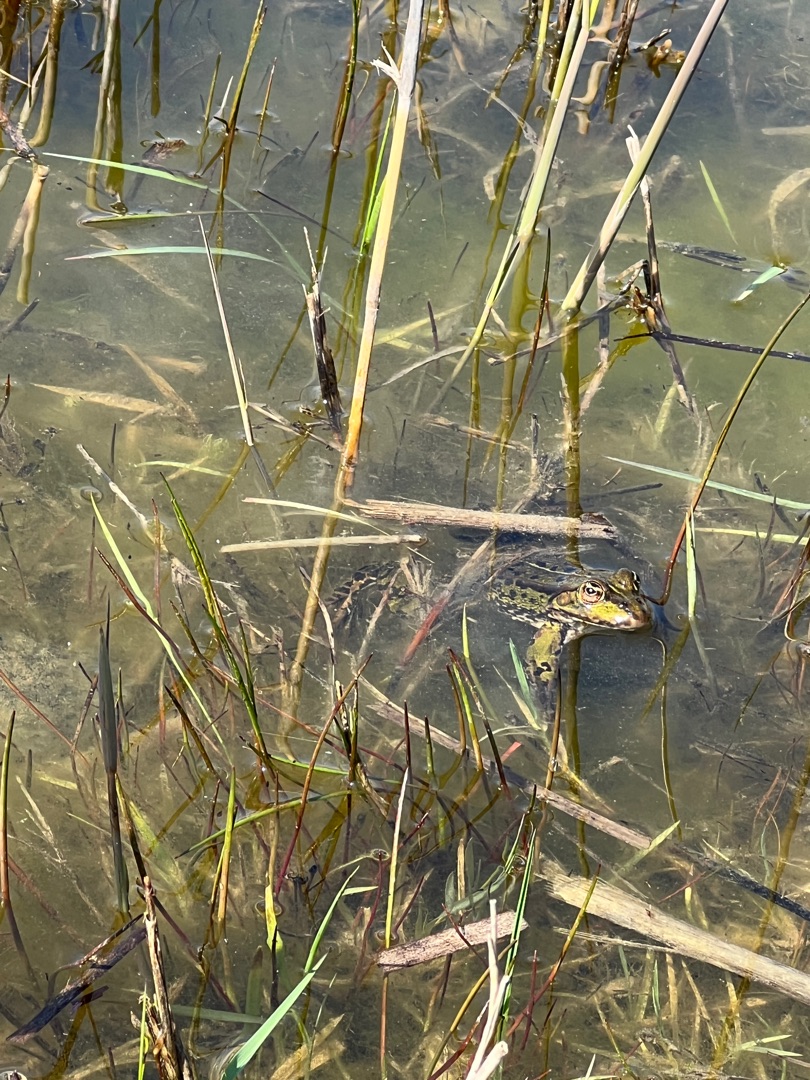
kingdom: Animalia
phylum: Chordata
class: Amphibia
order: Anura
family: Ranidae
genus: Pelophylax
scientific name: Pelophylax lessonae
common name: Grøn frø
